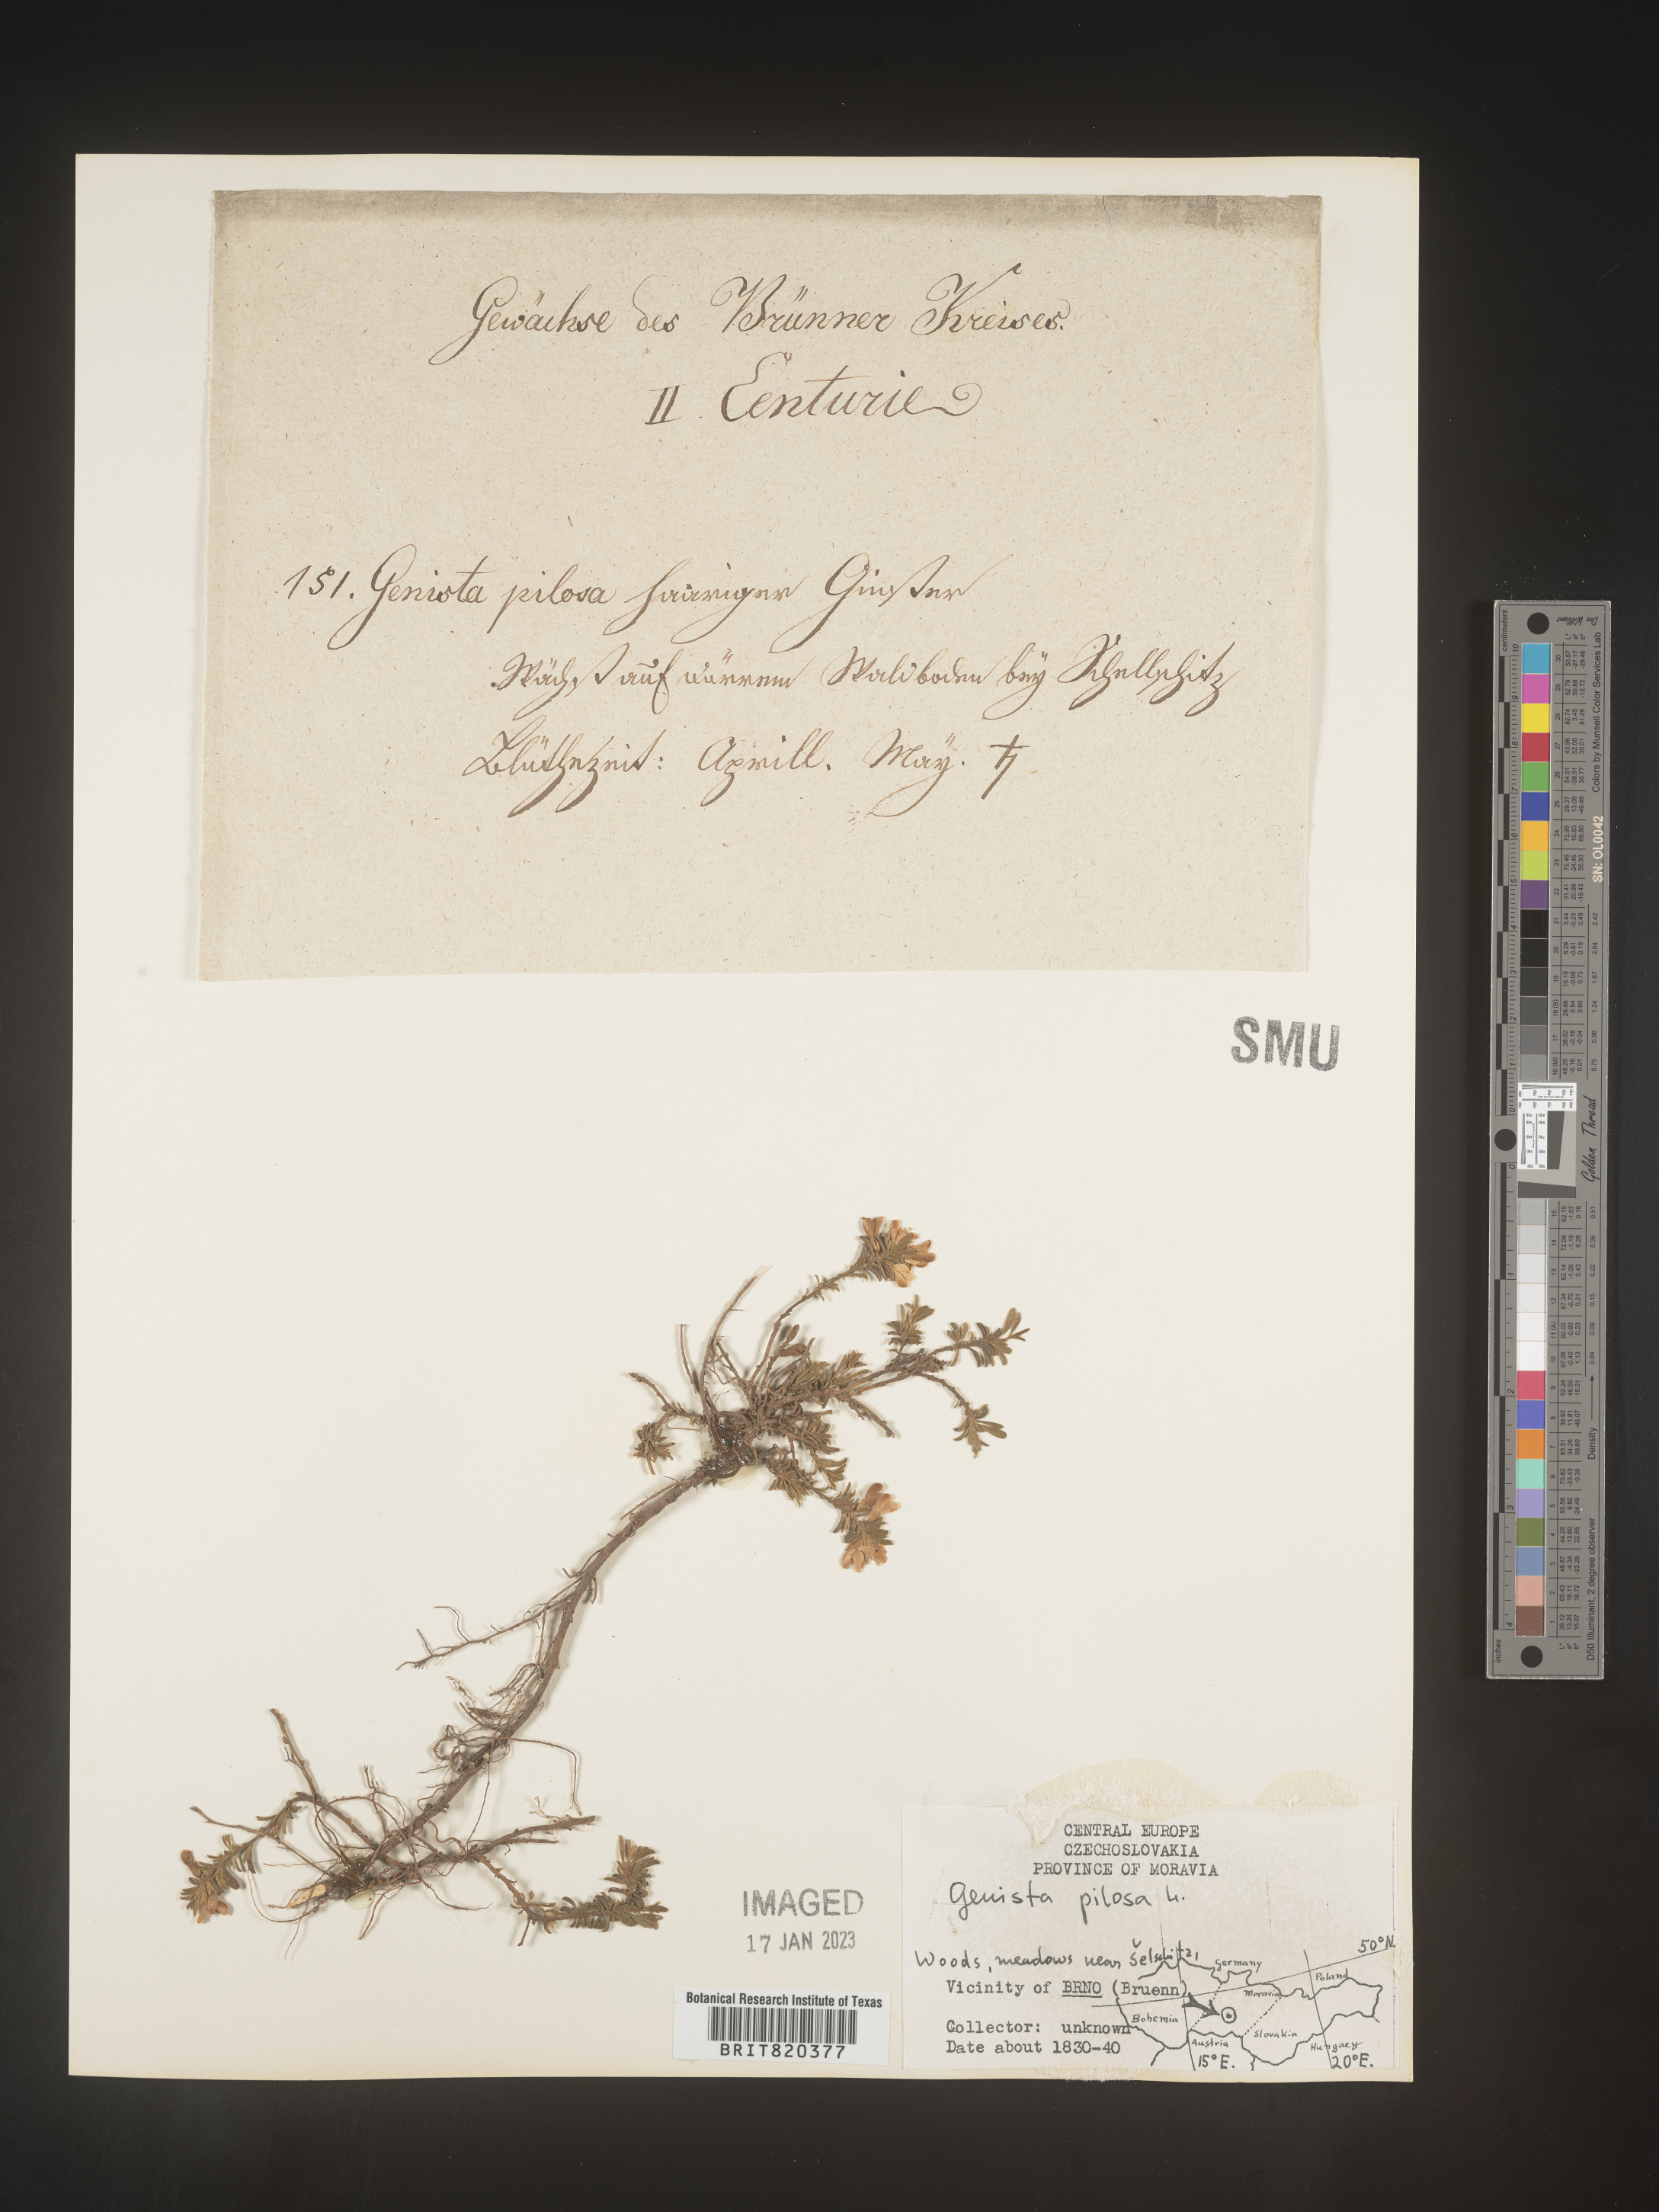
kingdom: Plantae
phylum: Tracheophyta
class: Magnoliopsida
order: Fabales
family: Fabaceae
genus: Genista
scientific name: Genista
